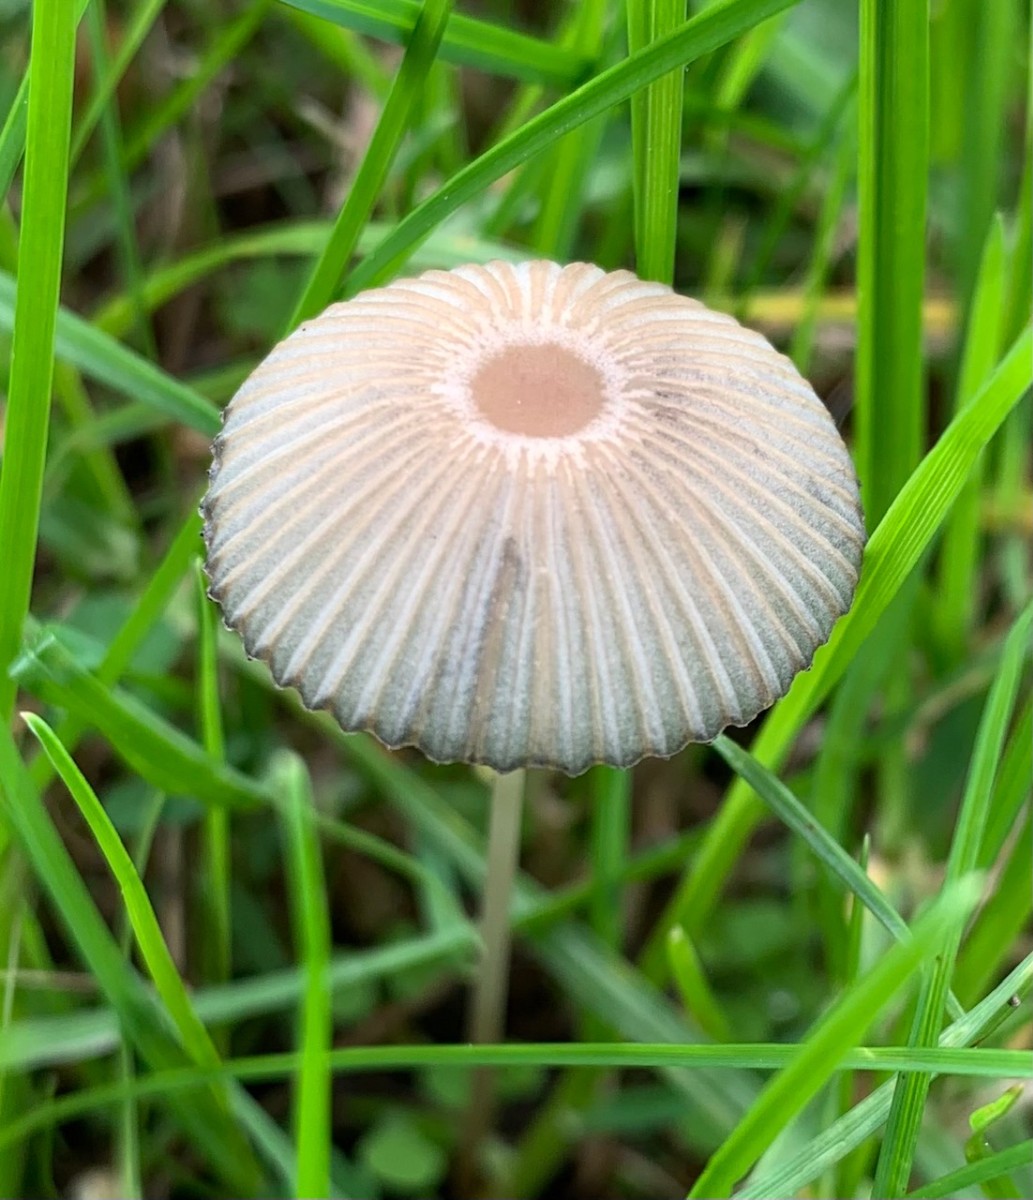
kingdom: Fungi
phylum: Basidiomycota
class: Agaricomycetes
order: Agaricales
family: Psathyrellaceae
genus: Parasola
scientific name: Parasola
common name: hjulhat
